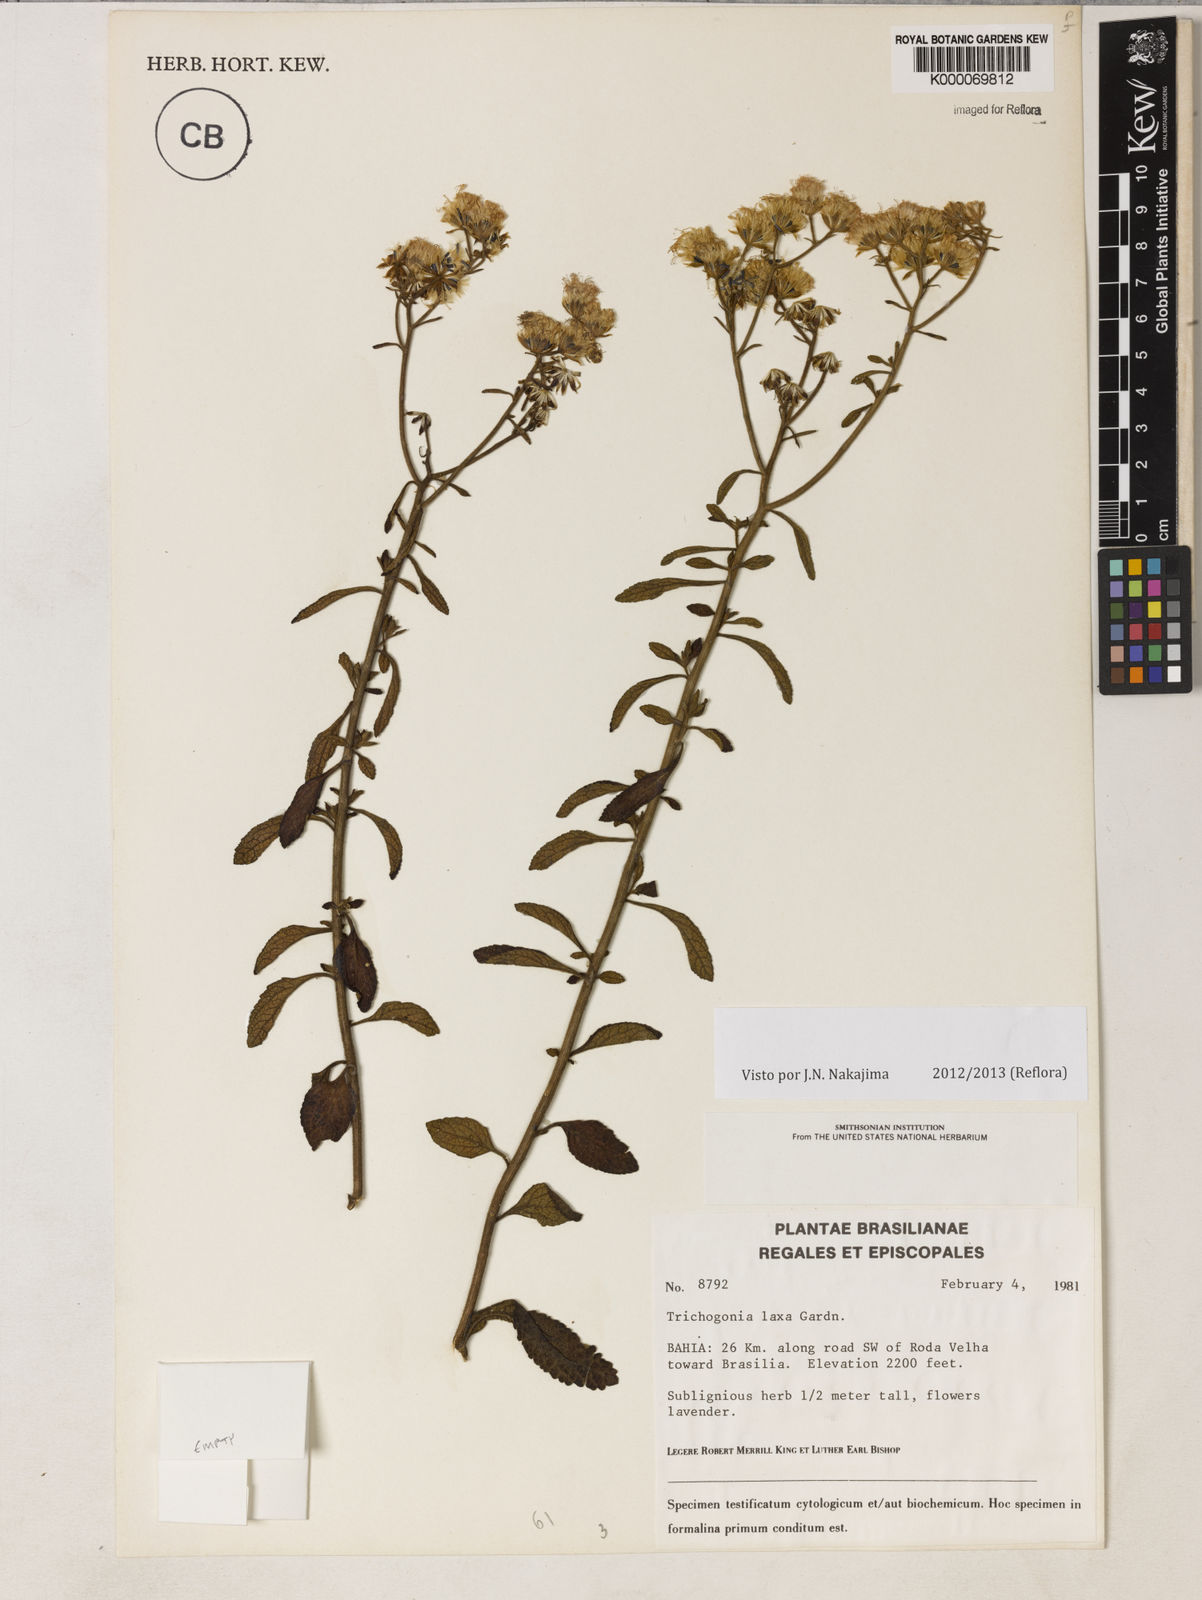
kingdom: Plantae
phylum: Tracheophyta
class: Magnoliopsida
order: Asterales
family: Asteraceae
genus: Trichogonia
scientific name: Trichogonia laxa
